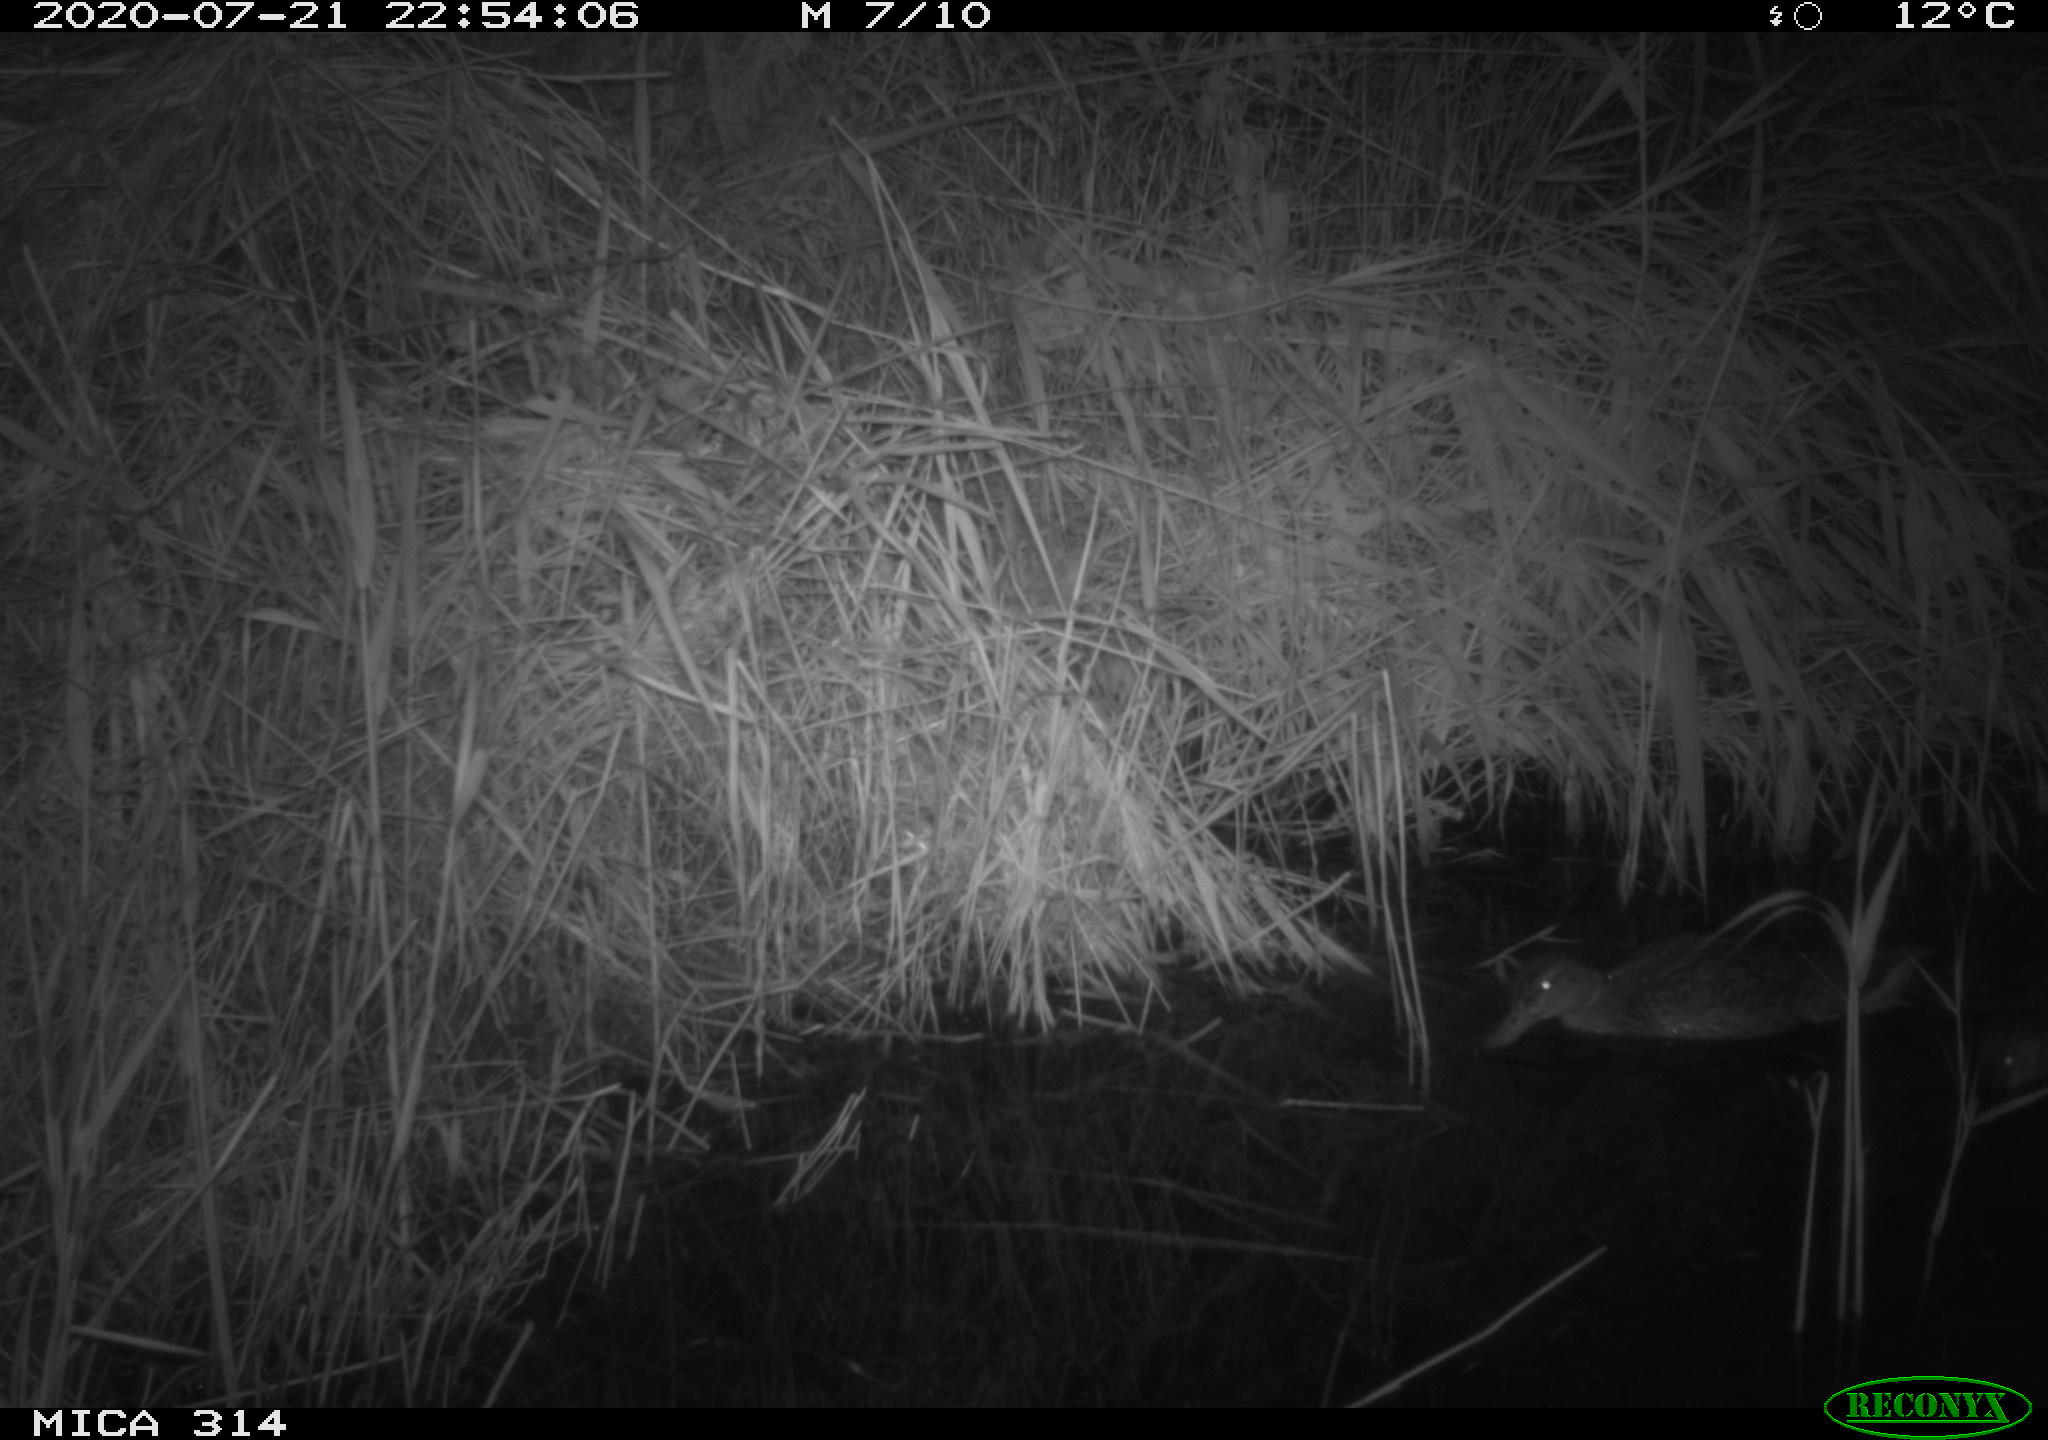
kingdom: Animalia
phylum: Chordata
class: Aves
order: Anseriformes
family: Anatidae
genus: Anas
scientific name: Anas platyrhynchos
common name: Mallard
